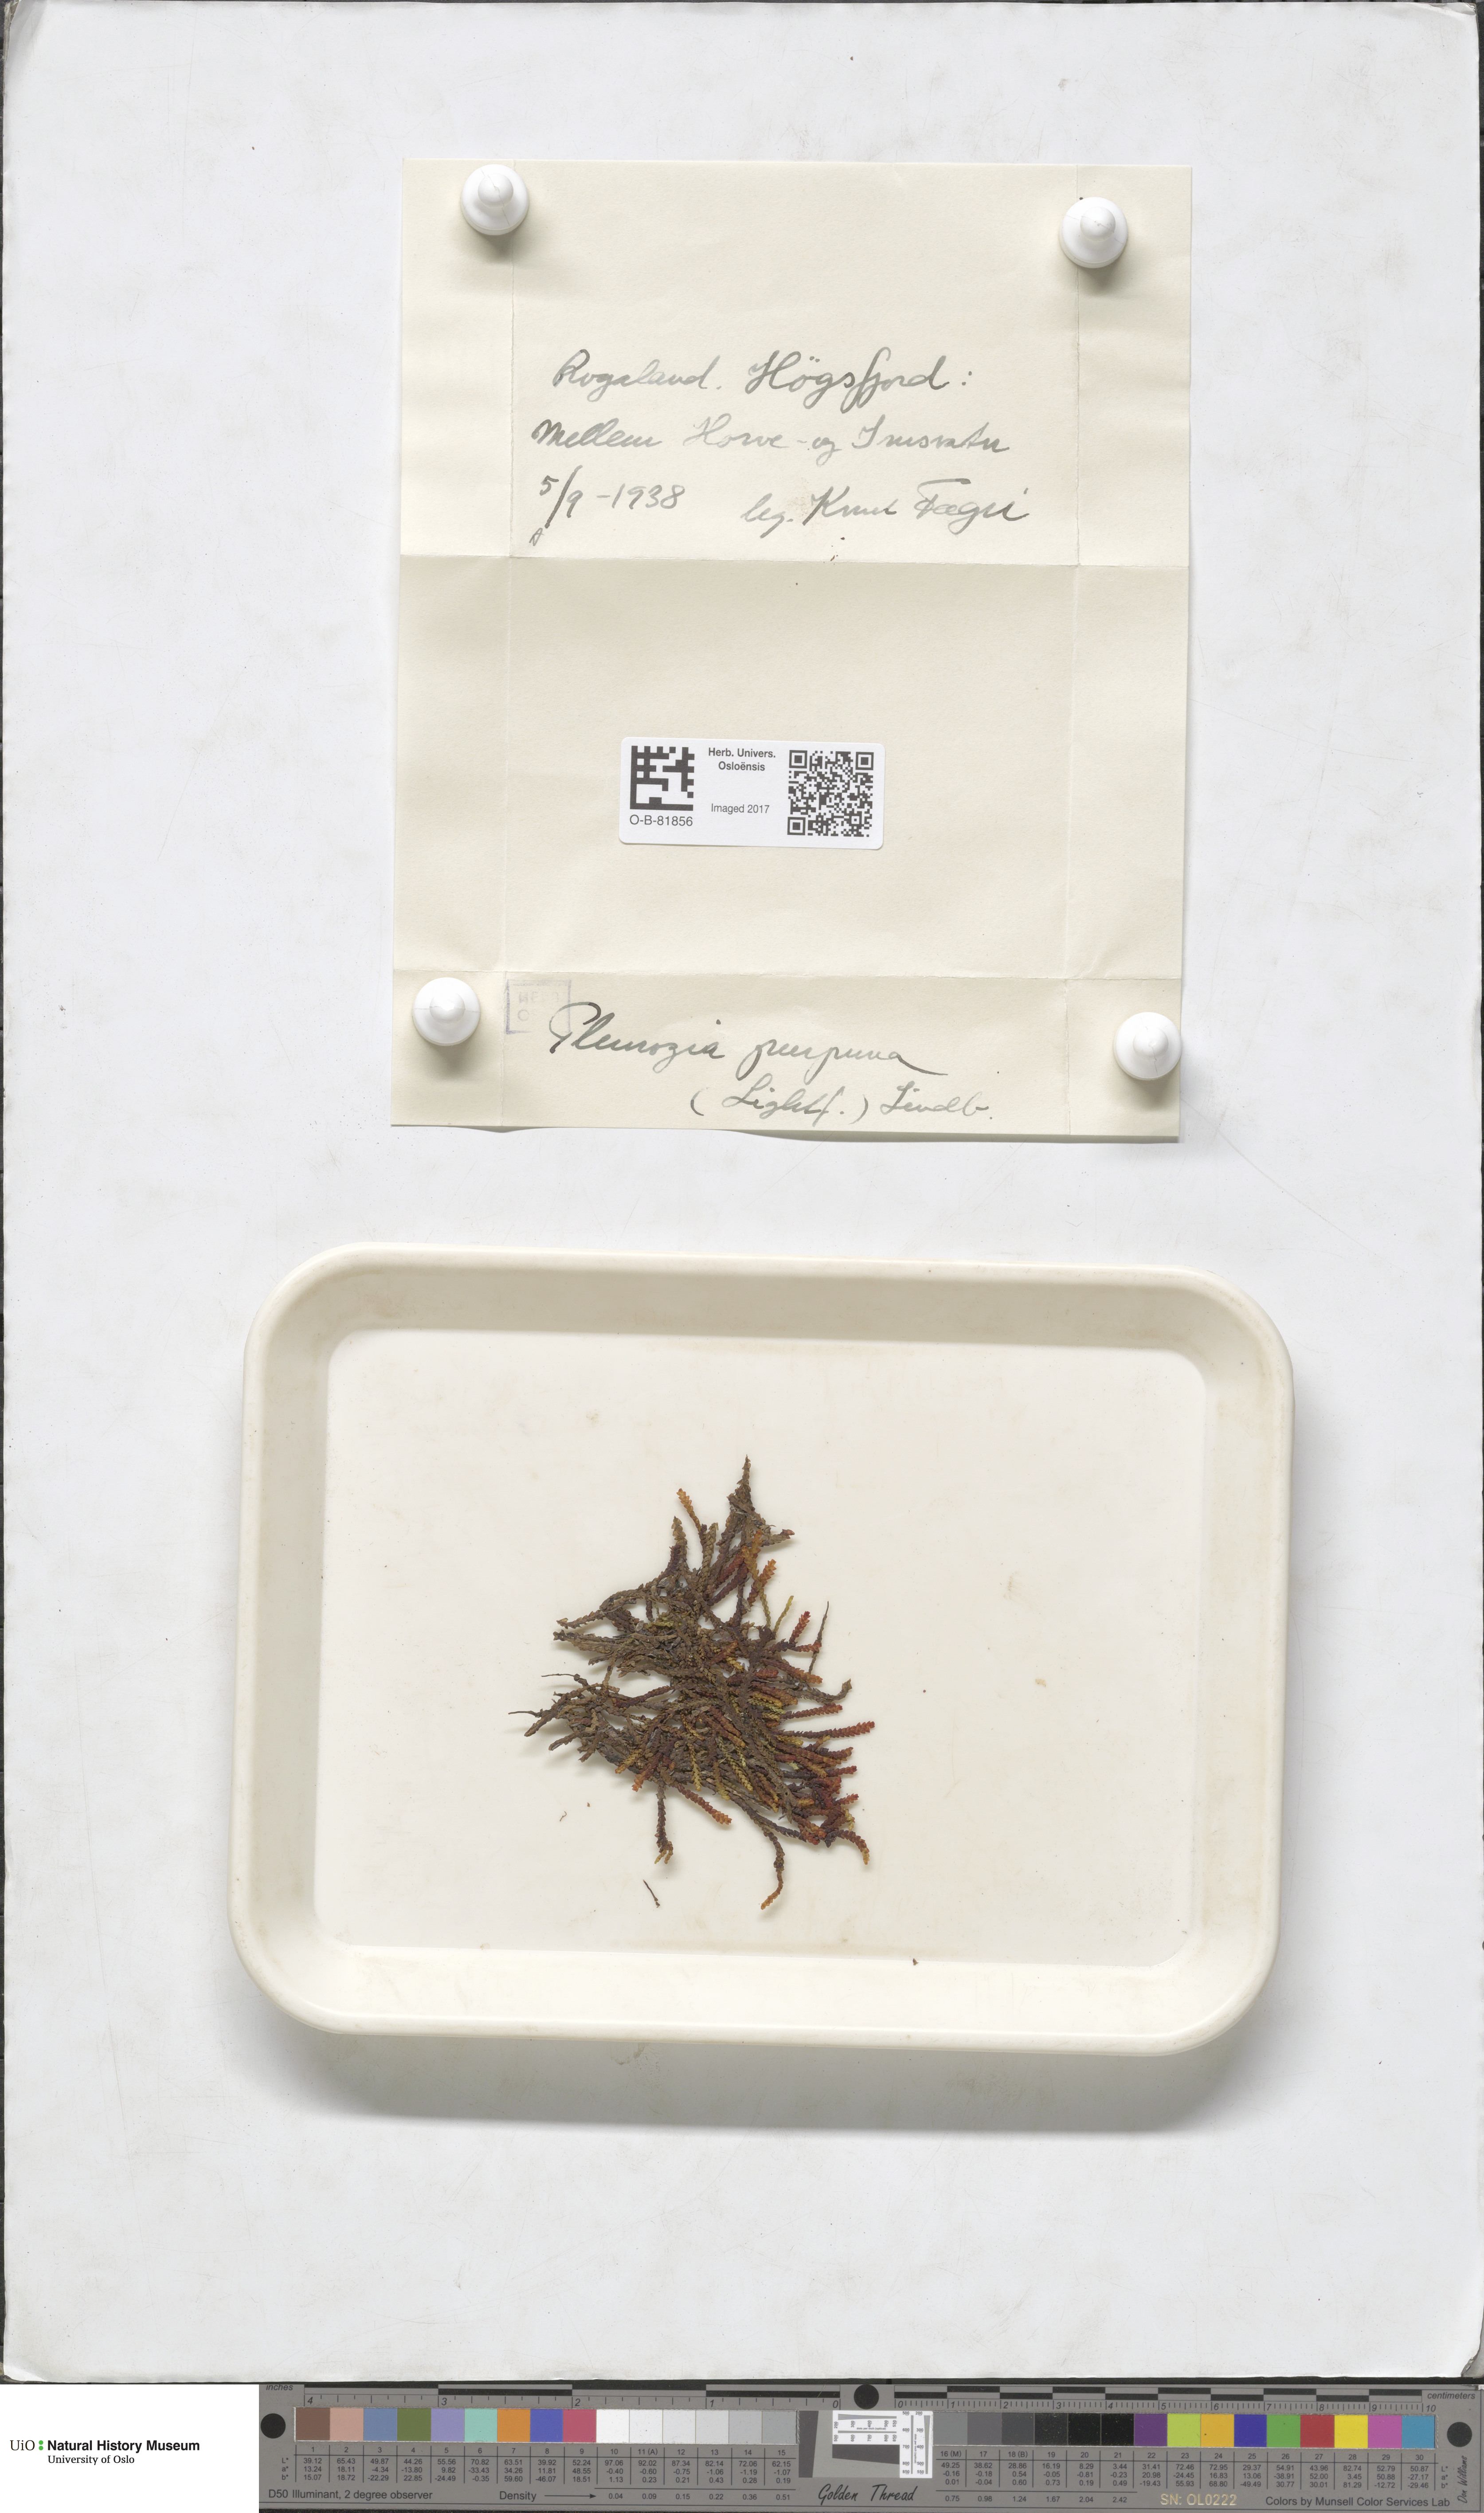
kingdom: Plantae
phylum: Marchantiophyta
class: Jungermanniopsida
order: Pleuroziales
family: Pleuroziaceae
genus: Pleurozia
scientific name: Pleurozia purpurea
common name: Purple spoonwort
